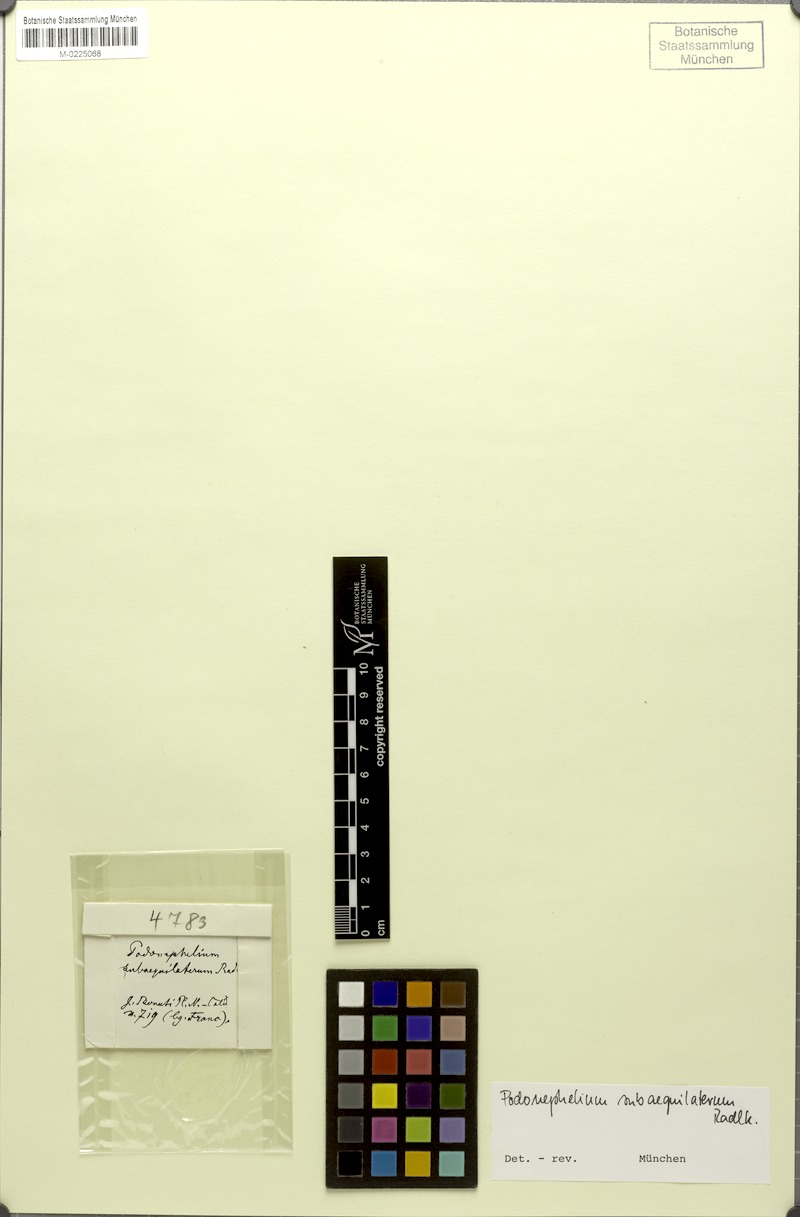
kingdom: Plantae
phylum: Tracheophyta
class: Magnoliopsida
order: Sapindales
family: Sapindaceae
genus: Podonephelium
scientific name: Podonephelium subaequilaterum
